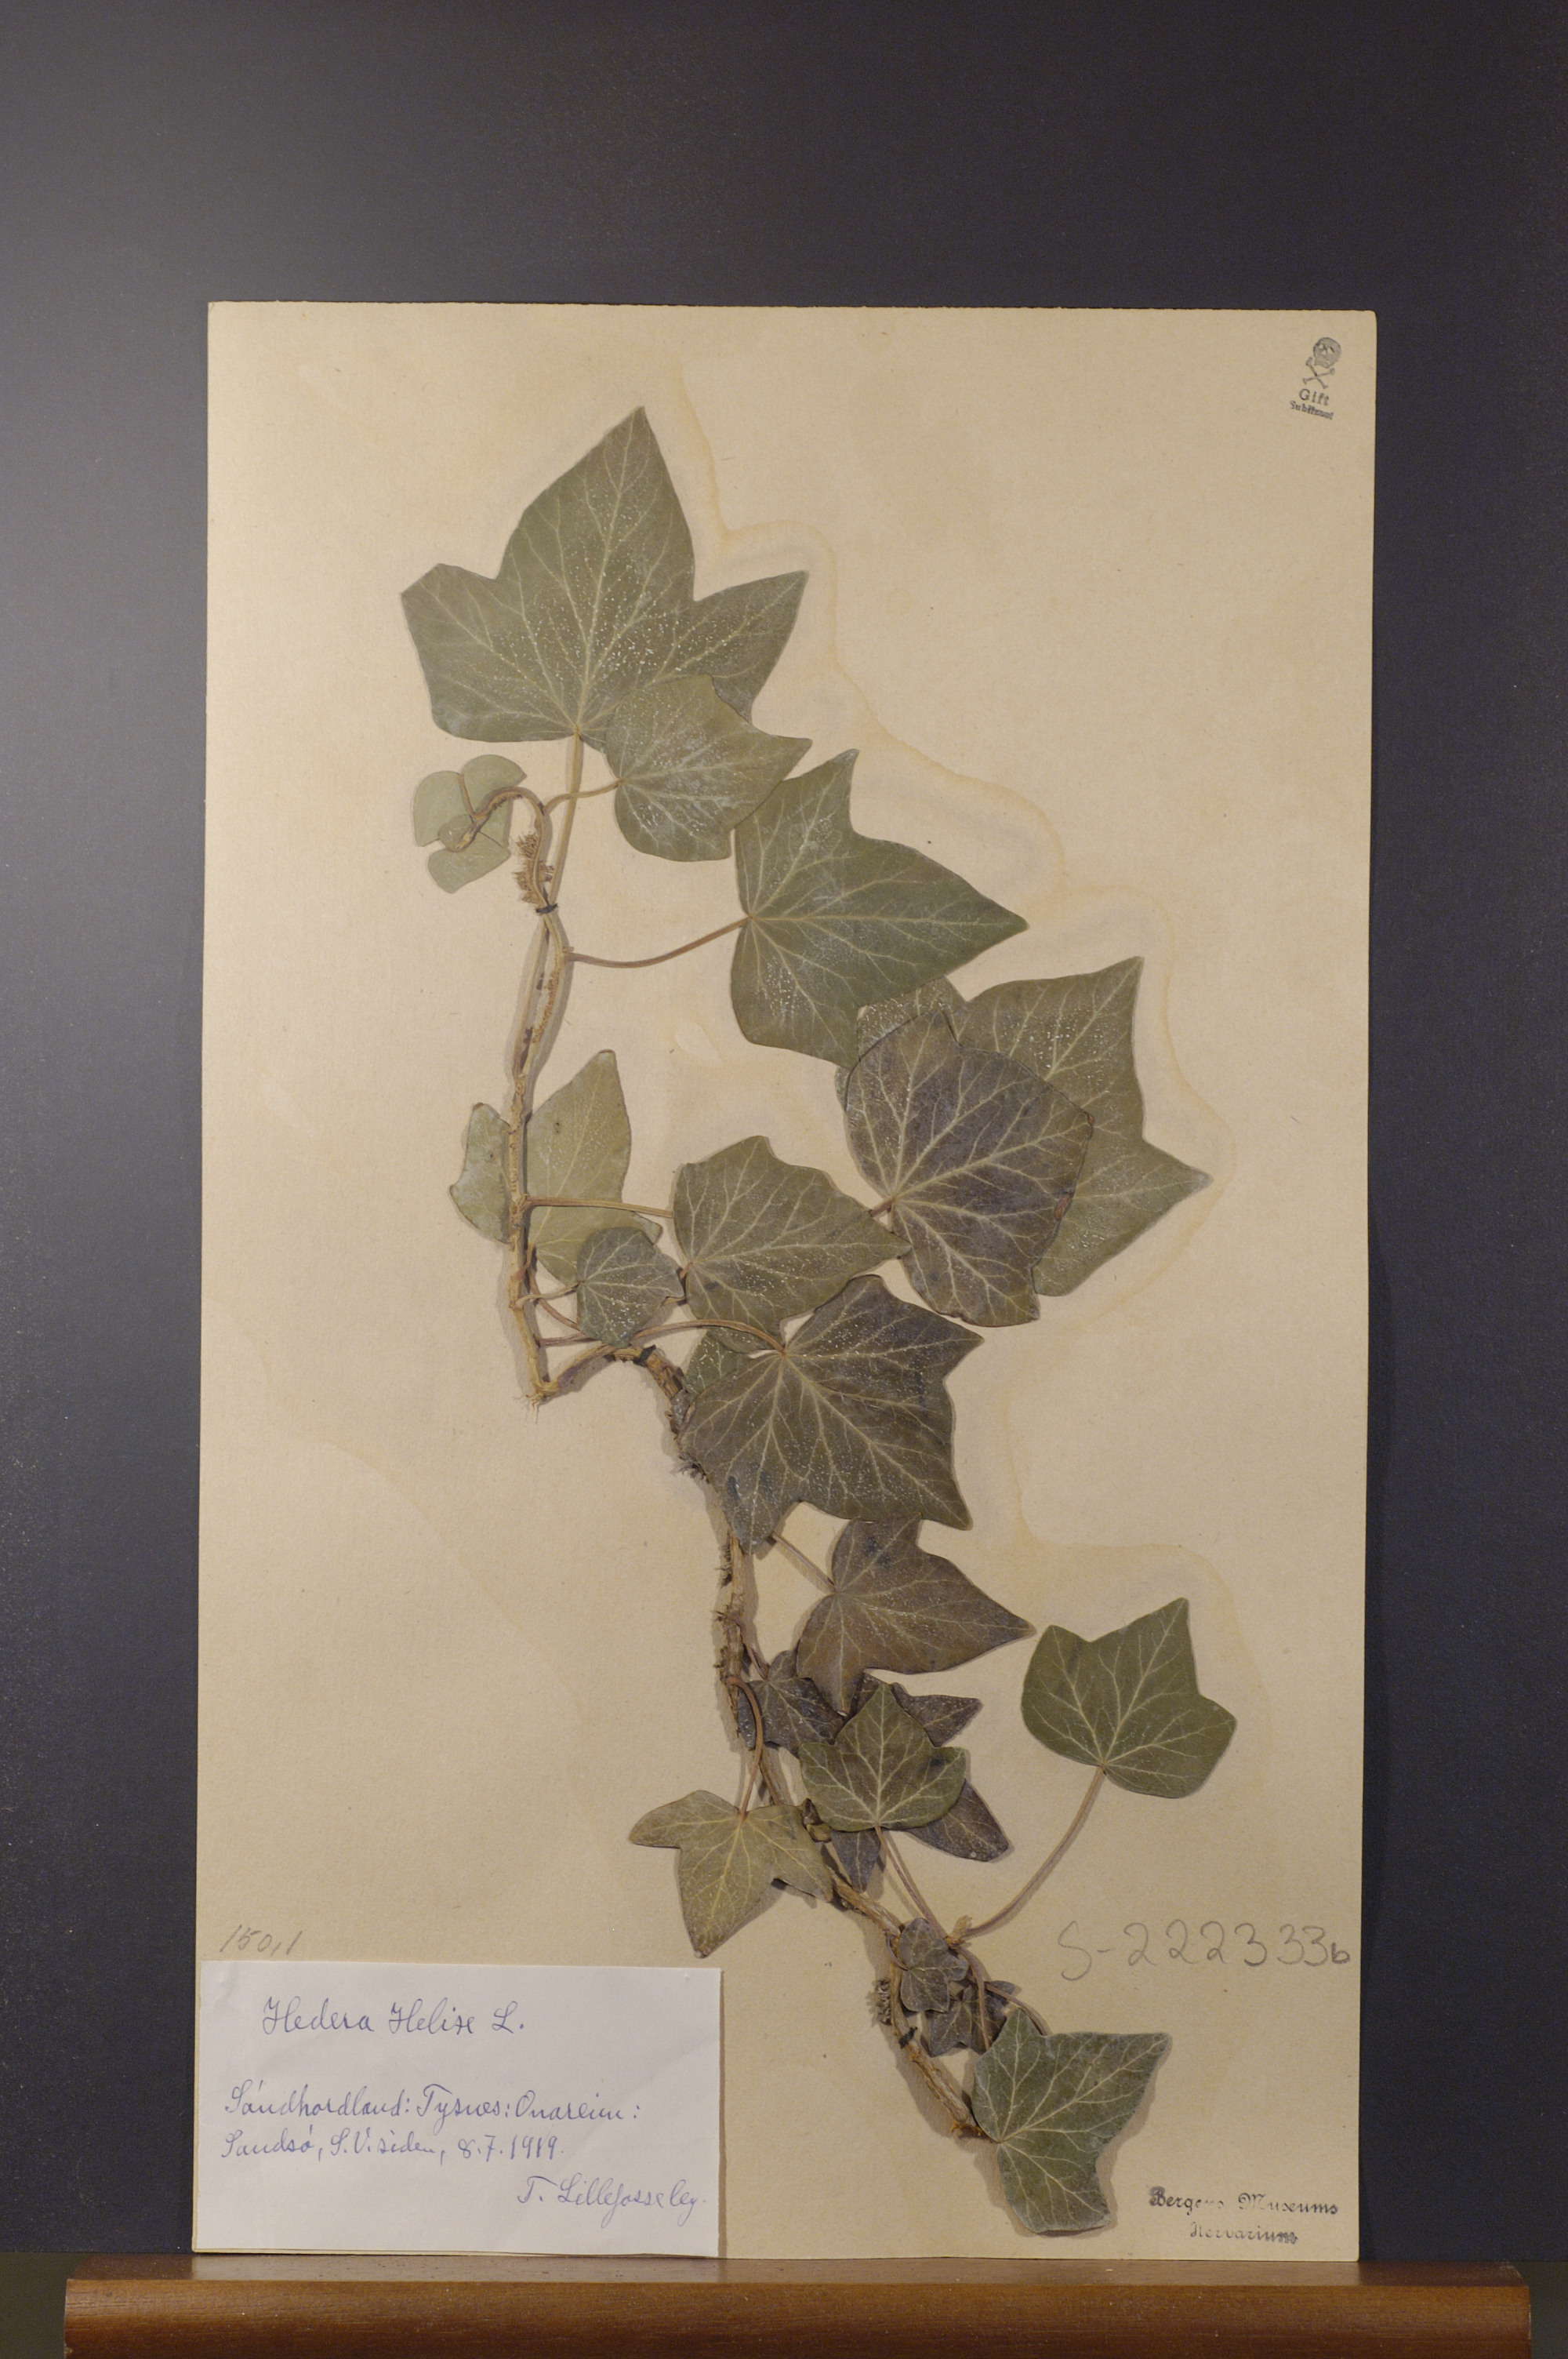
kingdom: Plantae
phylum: Tracheophyta
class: Magnoliopsida
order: Apiales
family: Araliaceae
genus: Hedera
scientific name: Hedera helix
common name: Ivy
